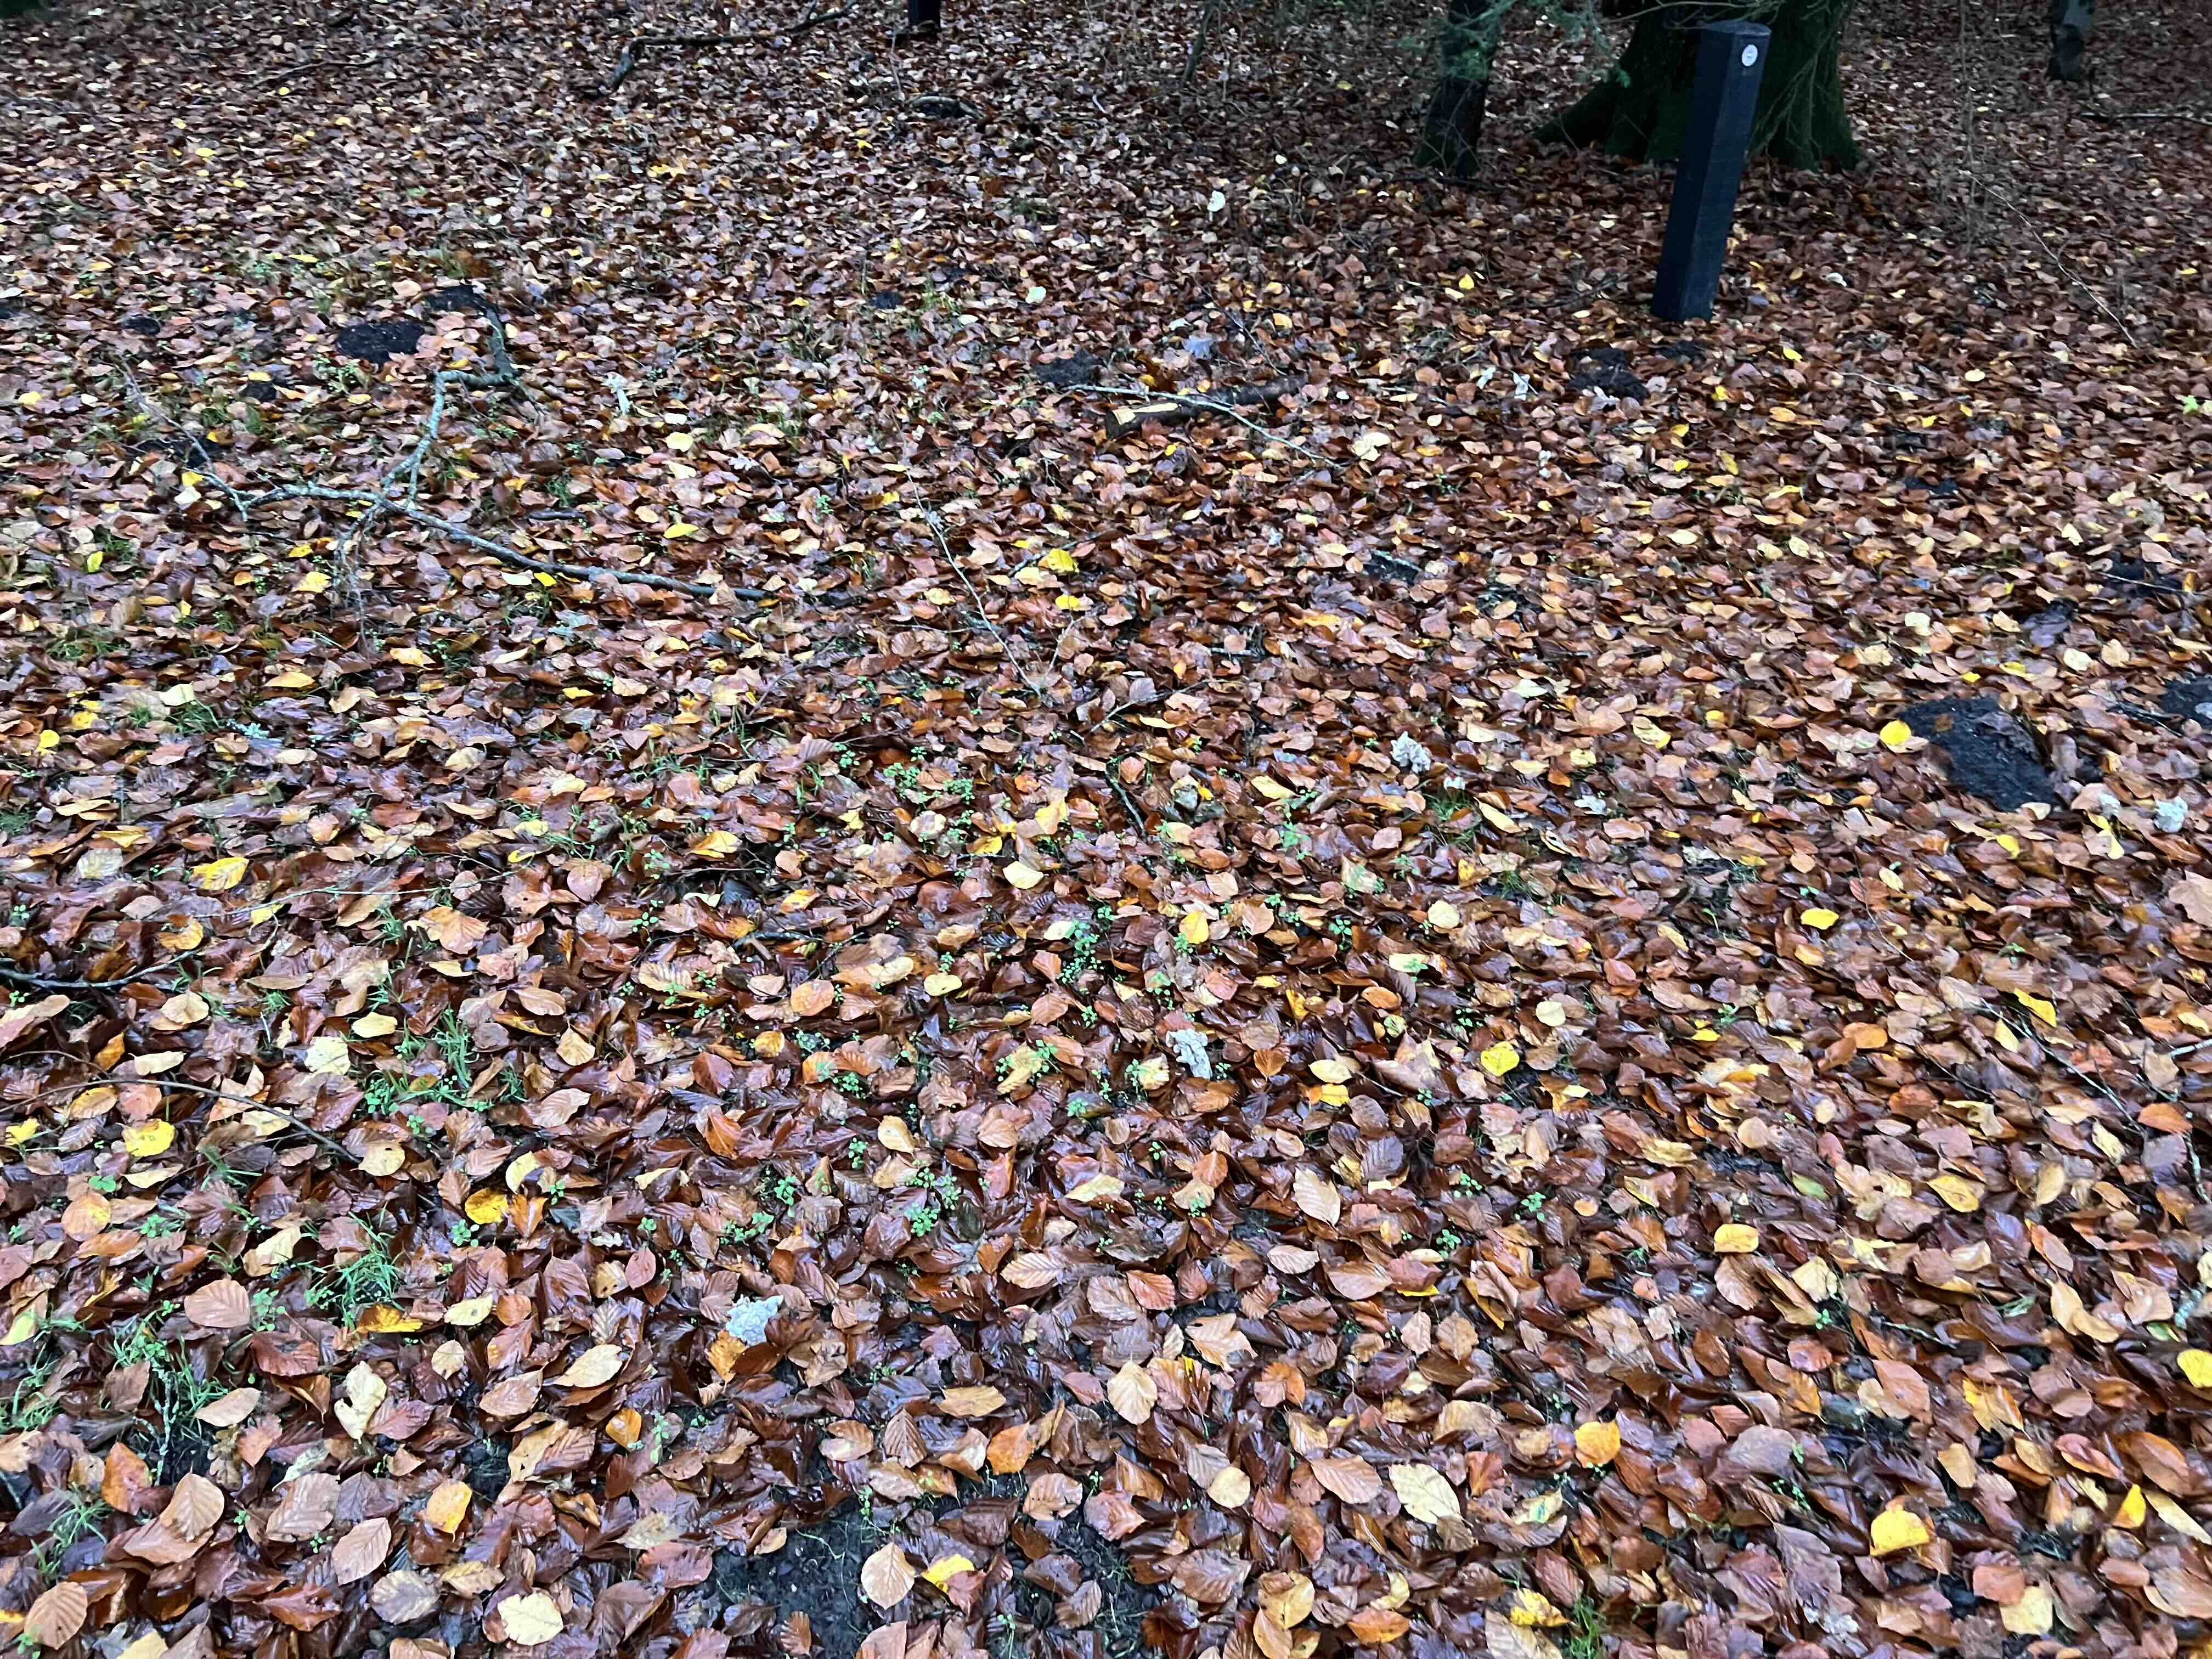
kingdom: Fungi
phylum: Ascomycota
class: Pezizomycetes
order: Pezizales
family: Helvellaceae
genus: Helvella
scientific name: Helvella crispa
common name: kruset foldhat
